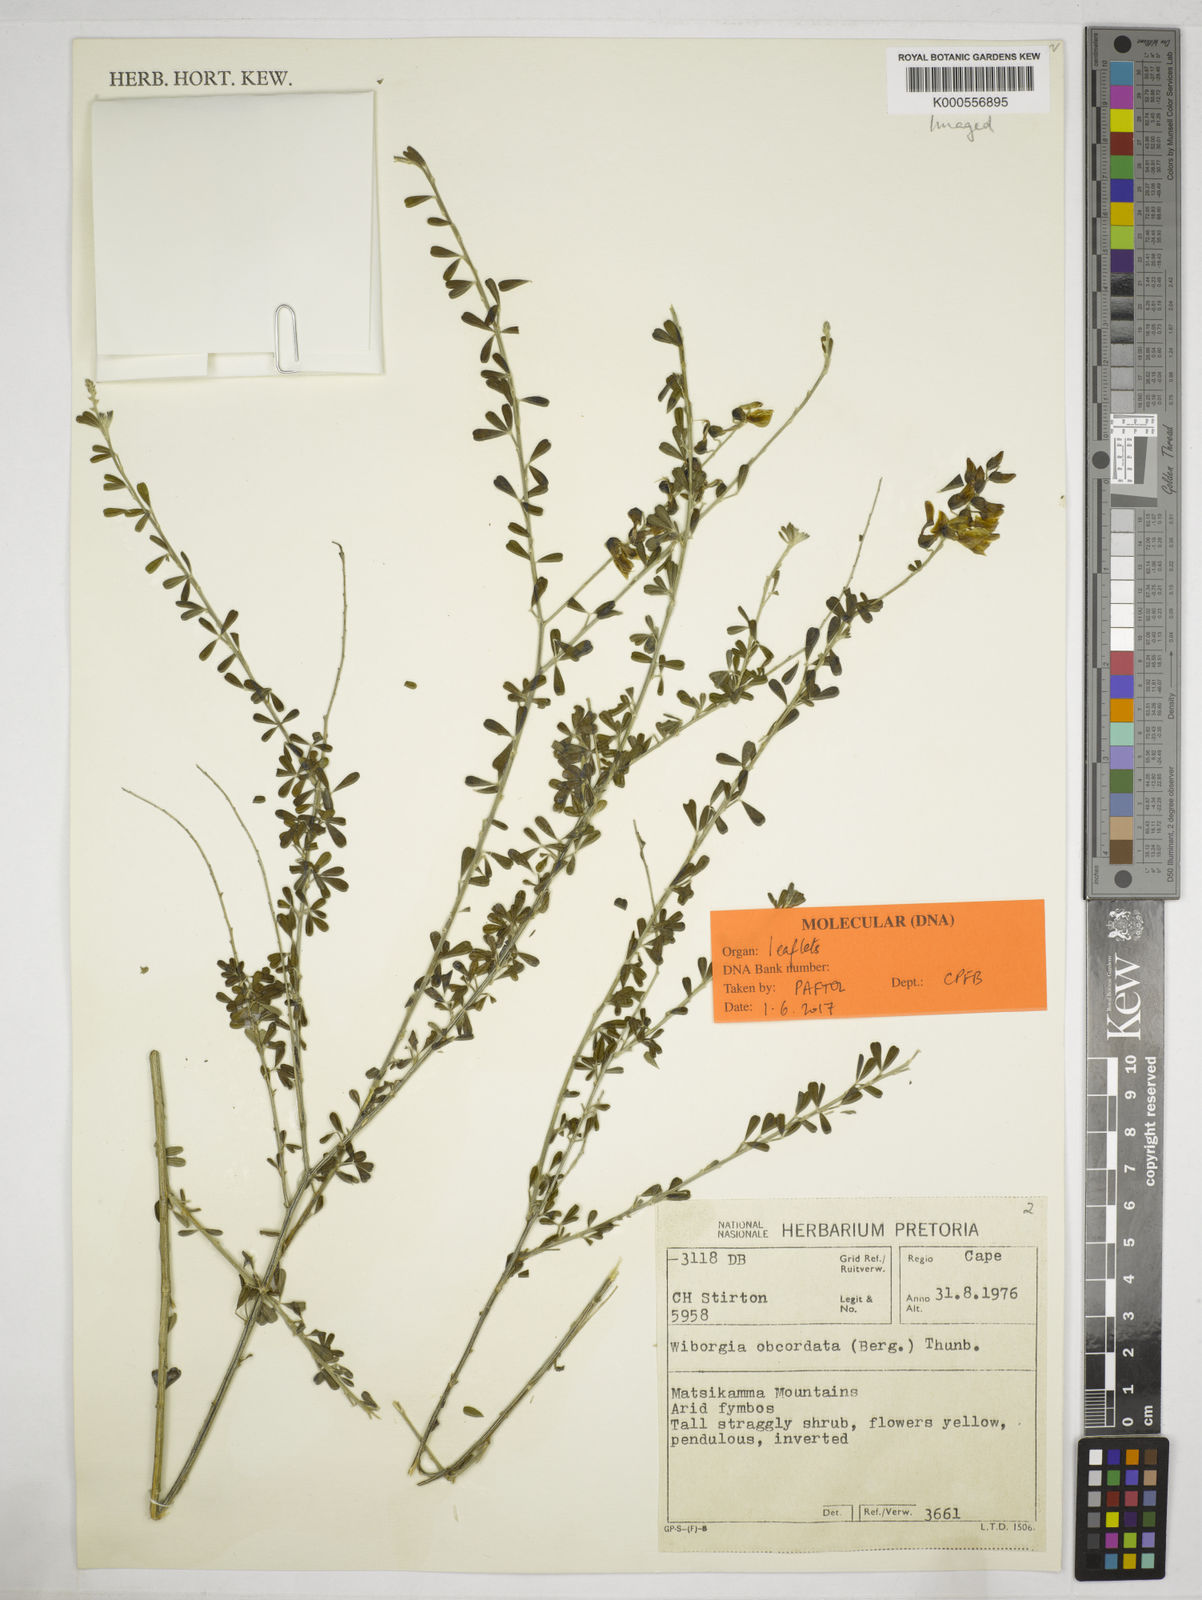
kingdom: Plantae
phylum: Tracheophyta
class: Magnoliopsida
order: Fabales
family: Fabaceae
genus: Wiborgia
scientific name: Wiborgia obcordata
